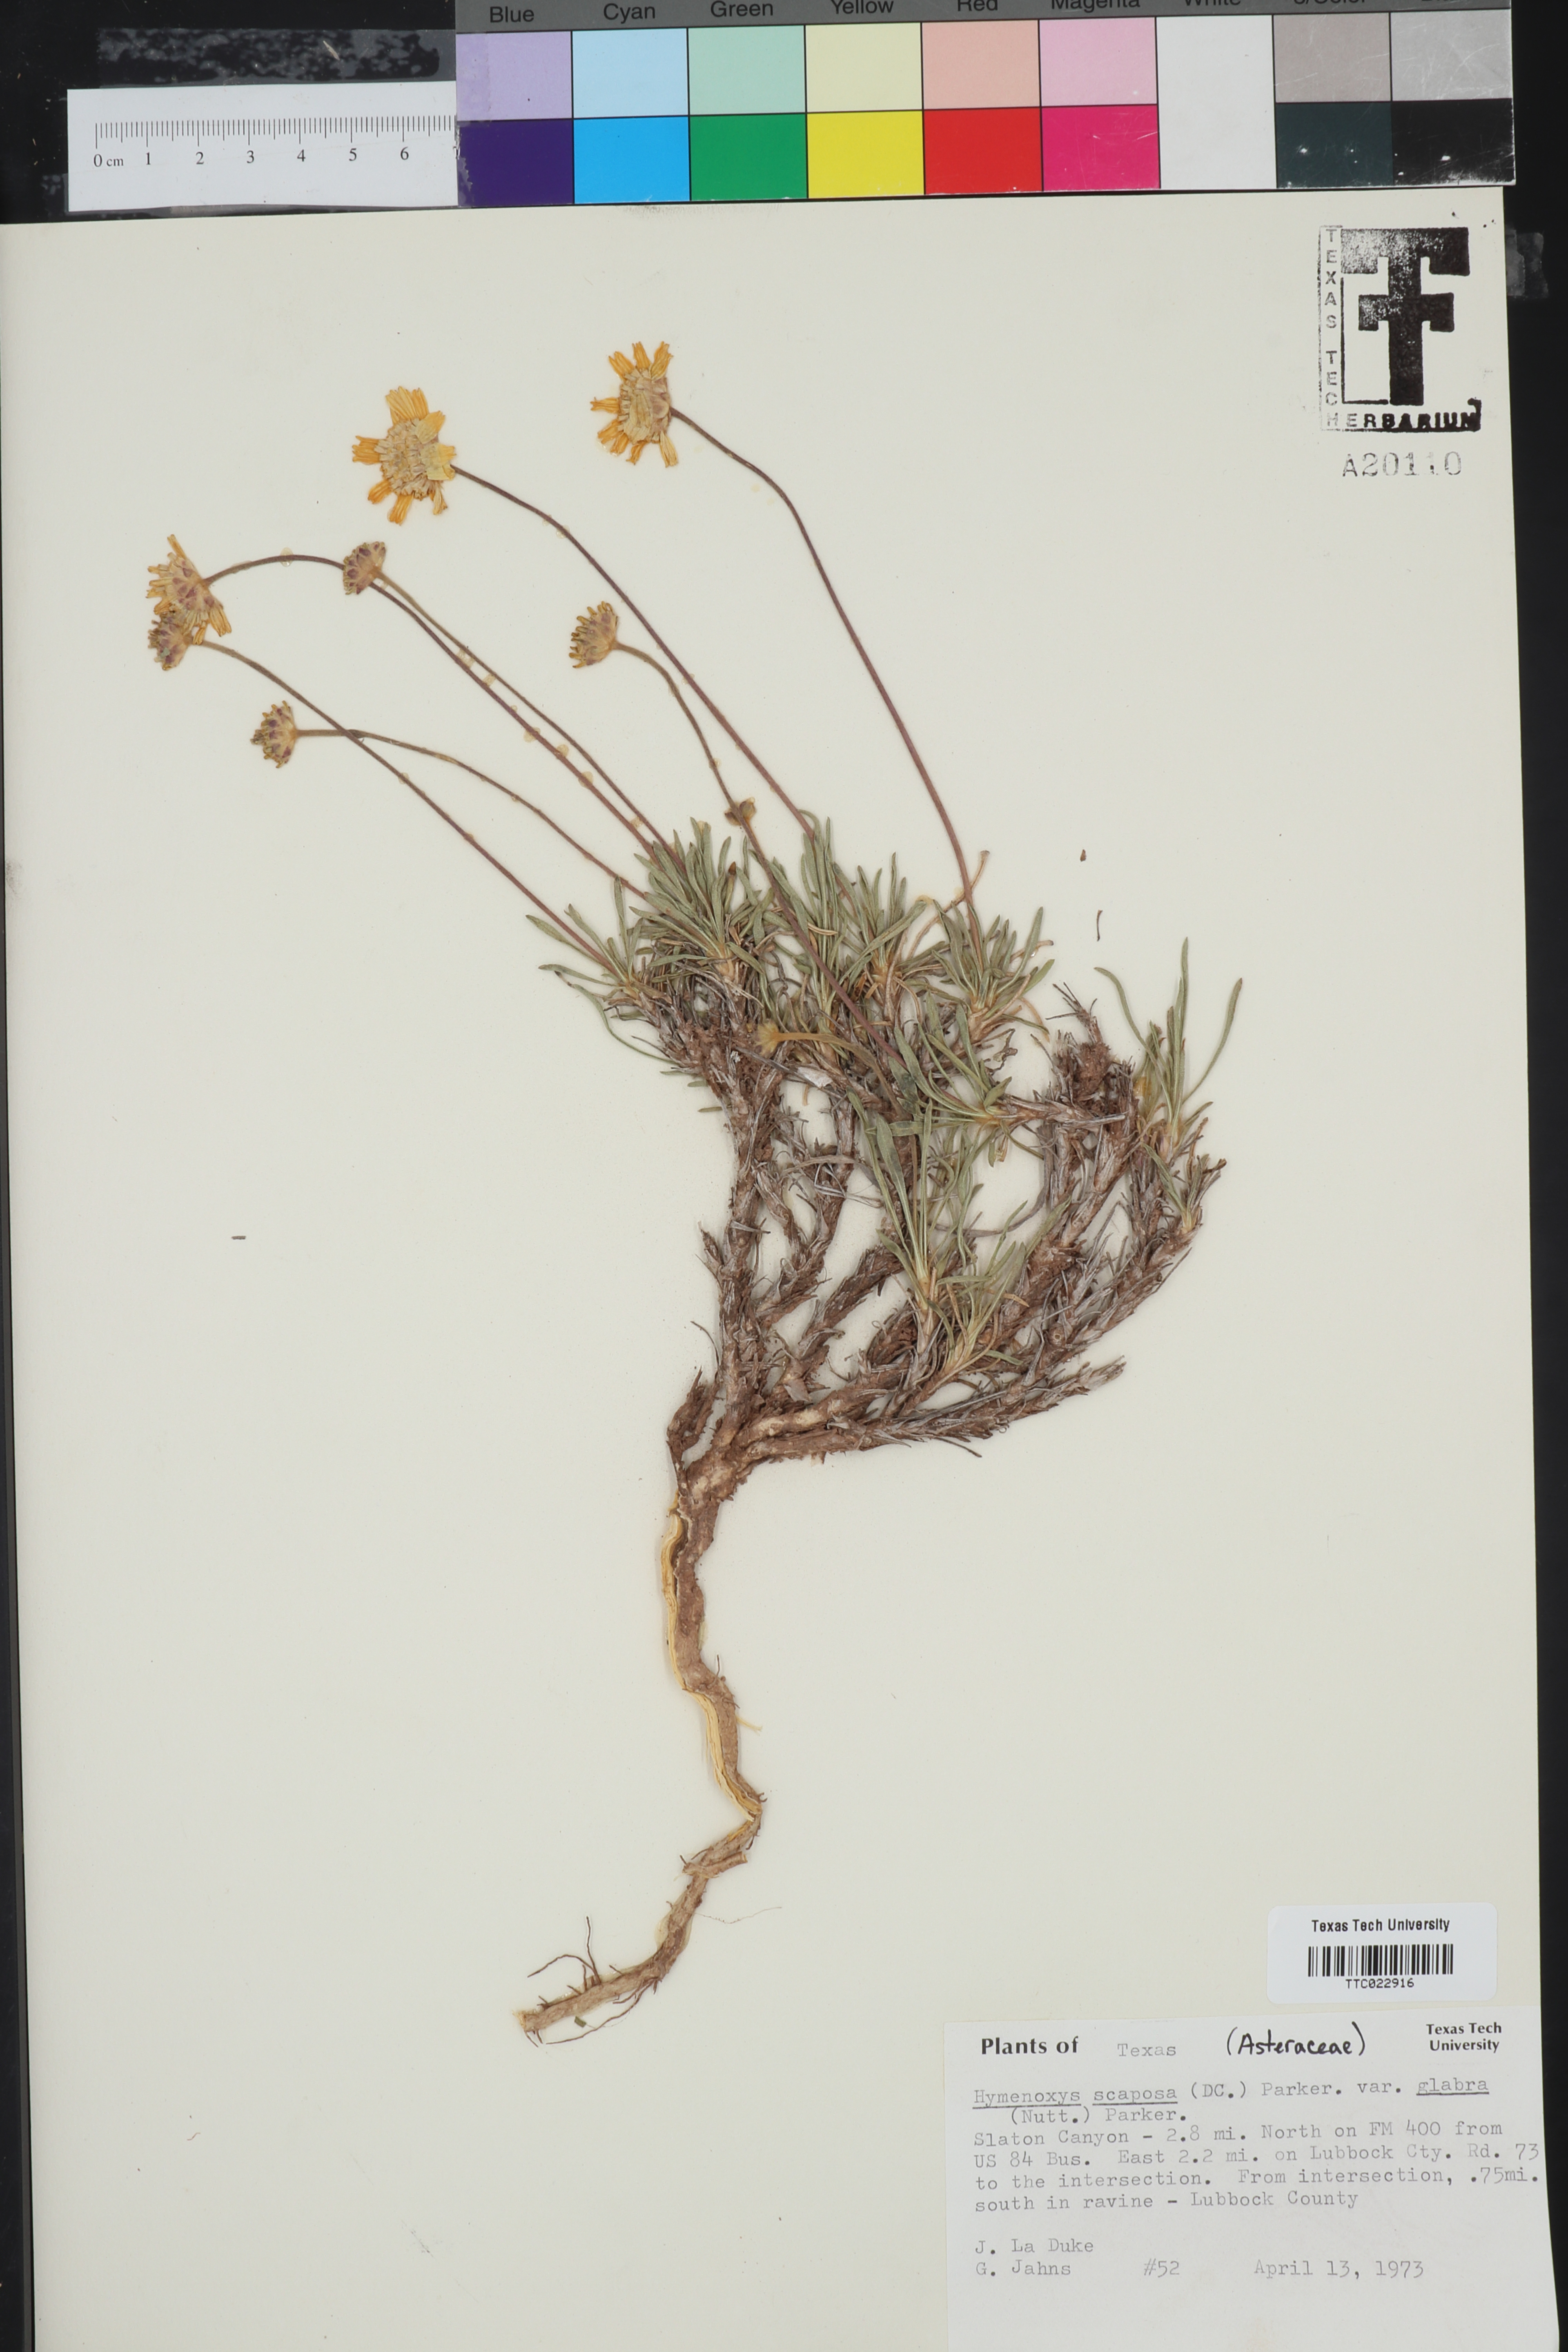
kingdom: Plantae
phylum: Tracheophyta
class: Magnoliopsida
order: Asterales
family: Asteraceae
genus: Tetraneuris
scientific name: Tetraneuris scaposa
